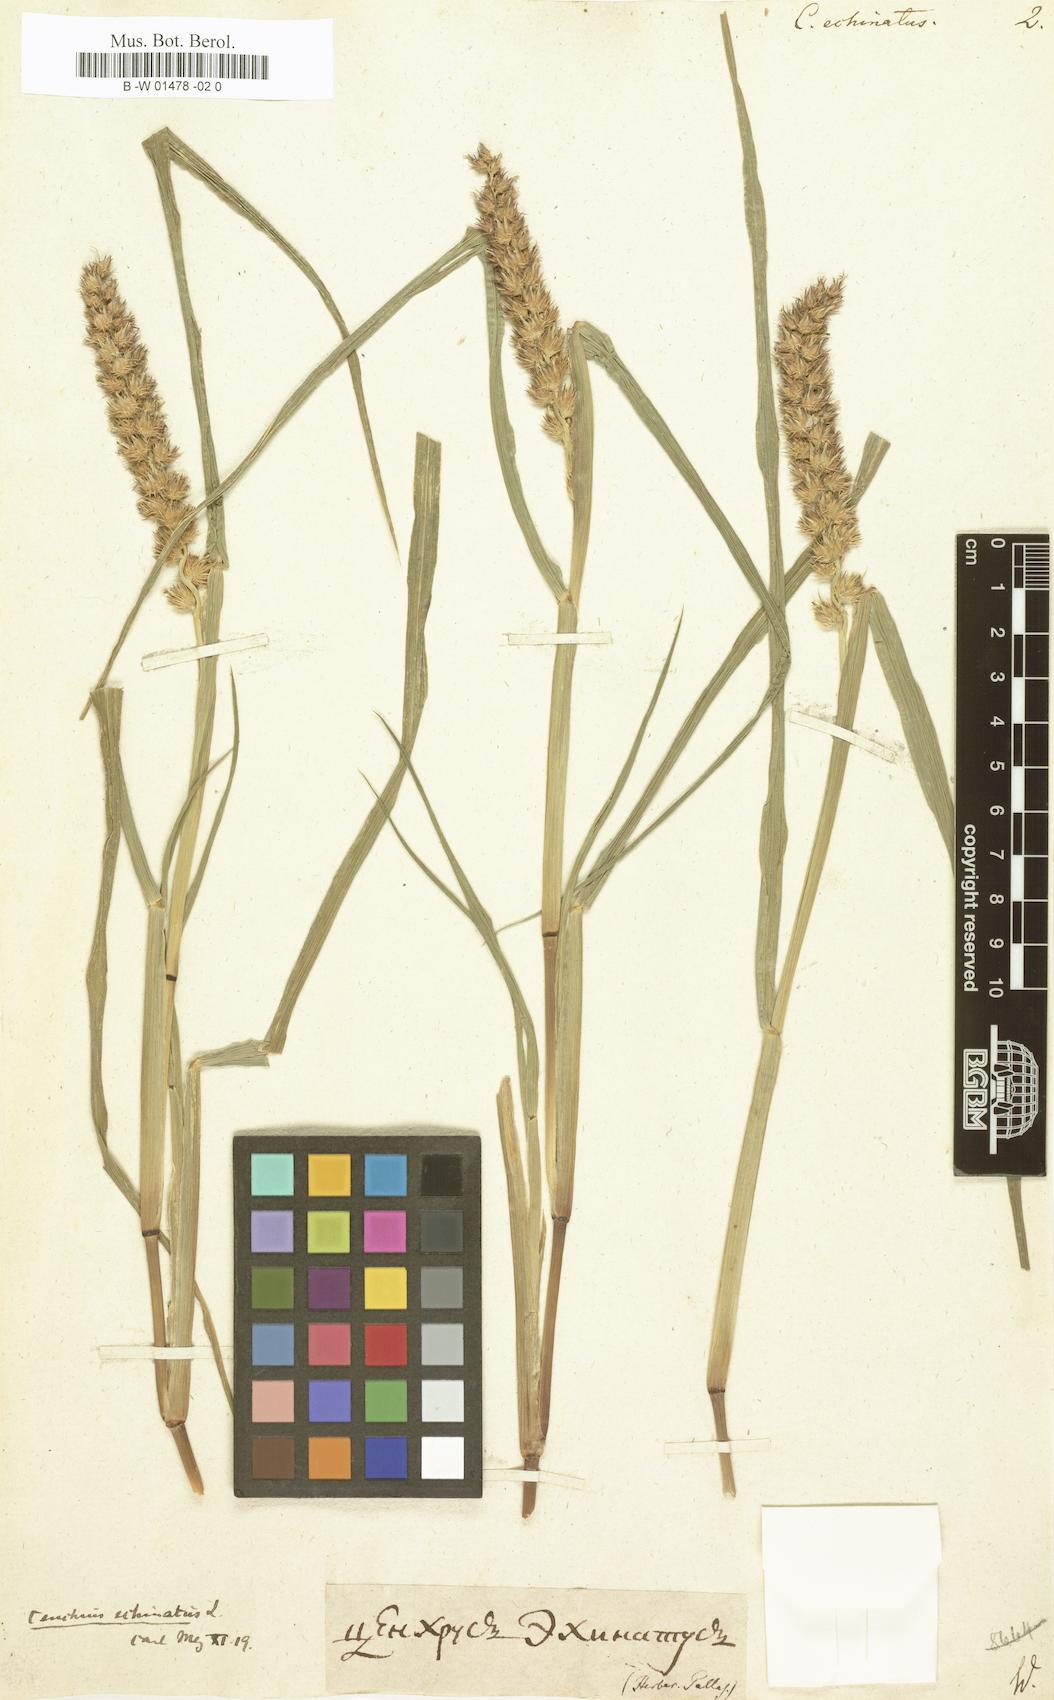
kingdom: Plantae
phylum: Tracheophyta
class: Liliopsida
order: Poales
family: Poaceae
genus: Cenchrus
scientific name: Cenchrus echinatus
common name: Southern sandbur
